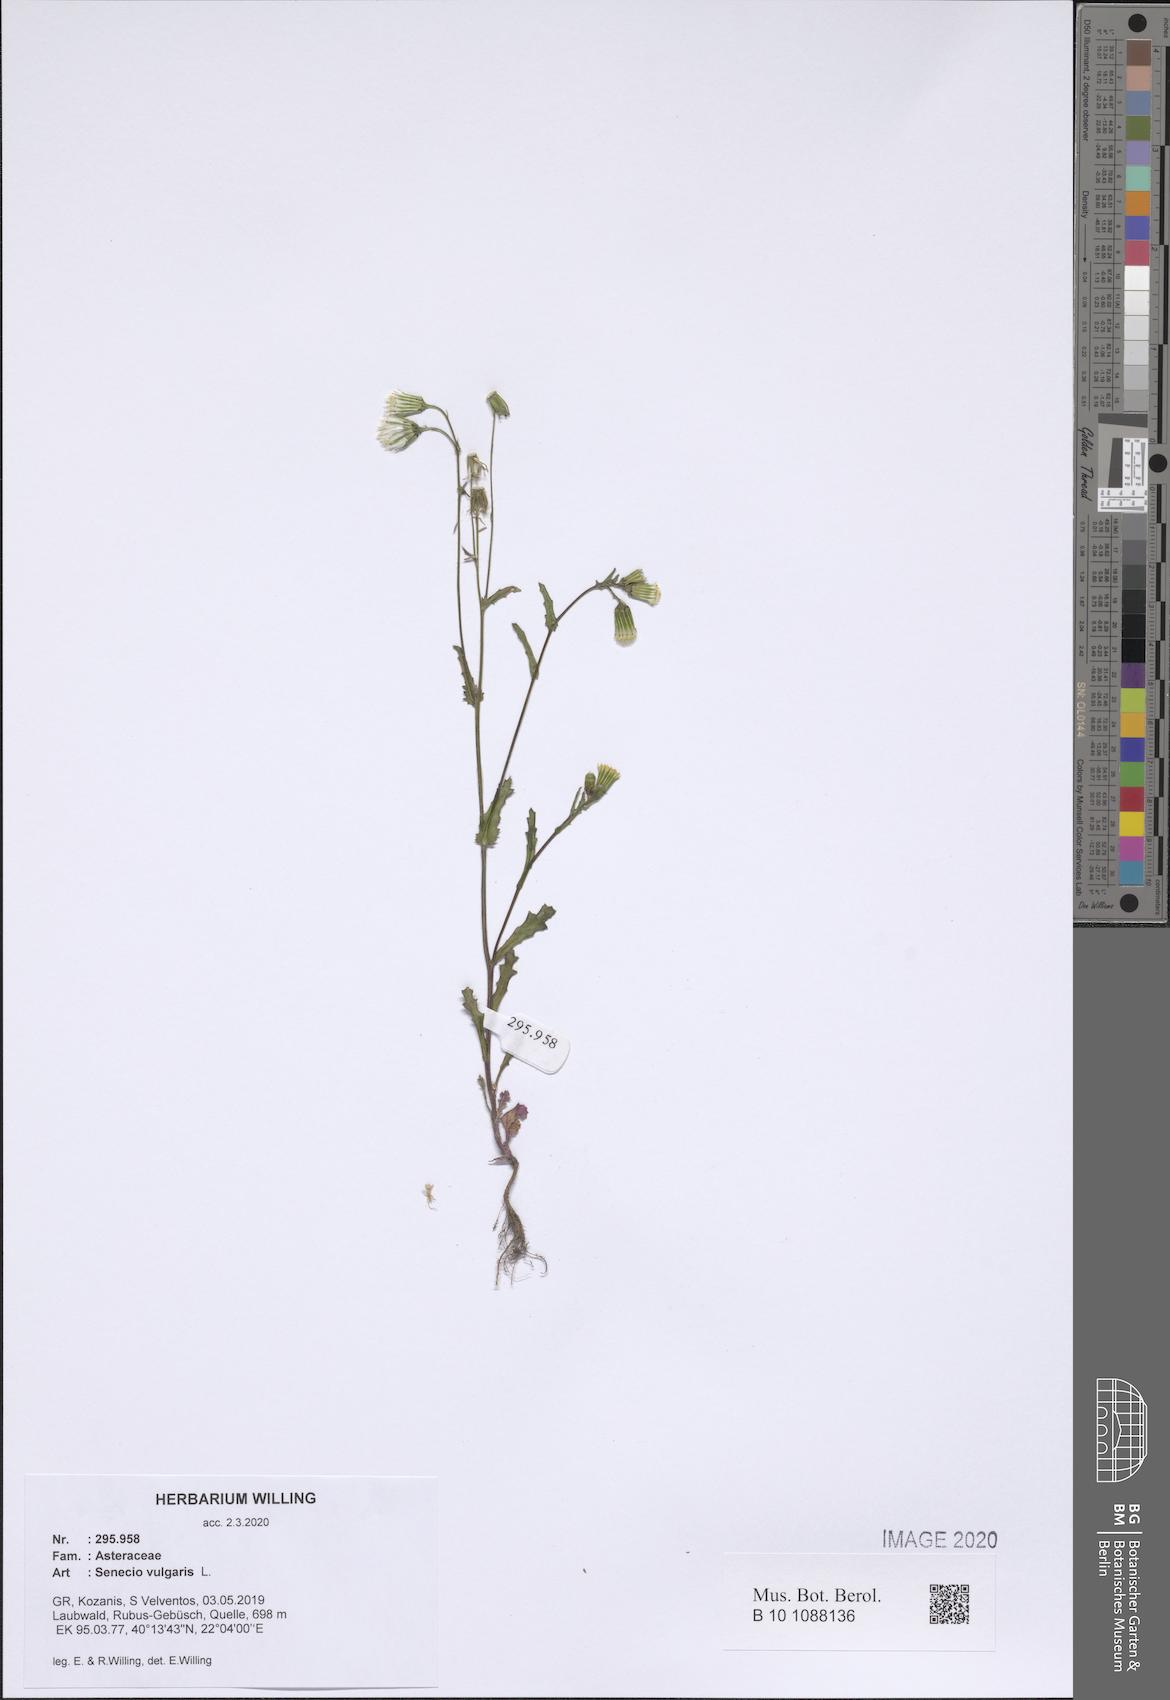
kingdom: Plantae
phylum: Tracheophyta
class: Magnoliopsida
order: Asterales
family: Asteraceae
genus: Senecio
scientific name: Senecio vulgaris
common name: Old-man-in-the-spring
